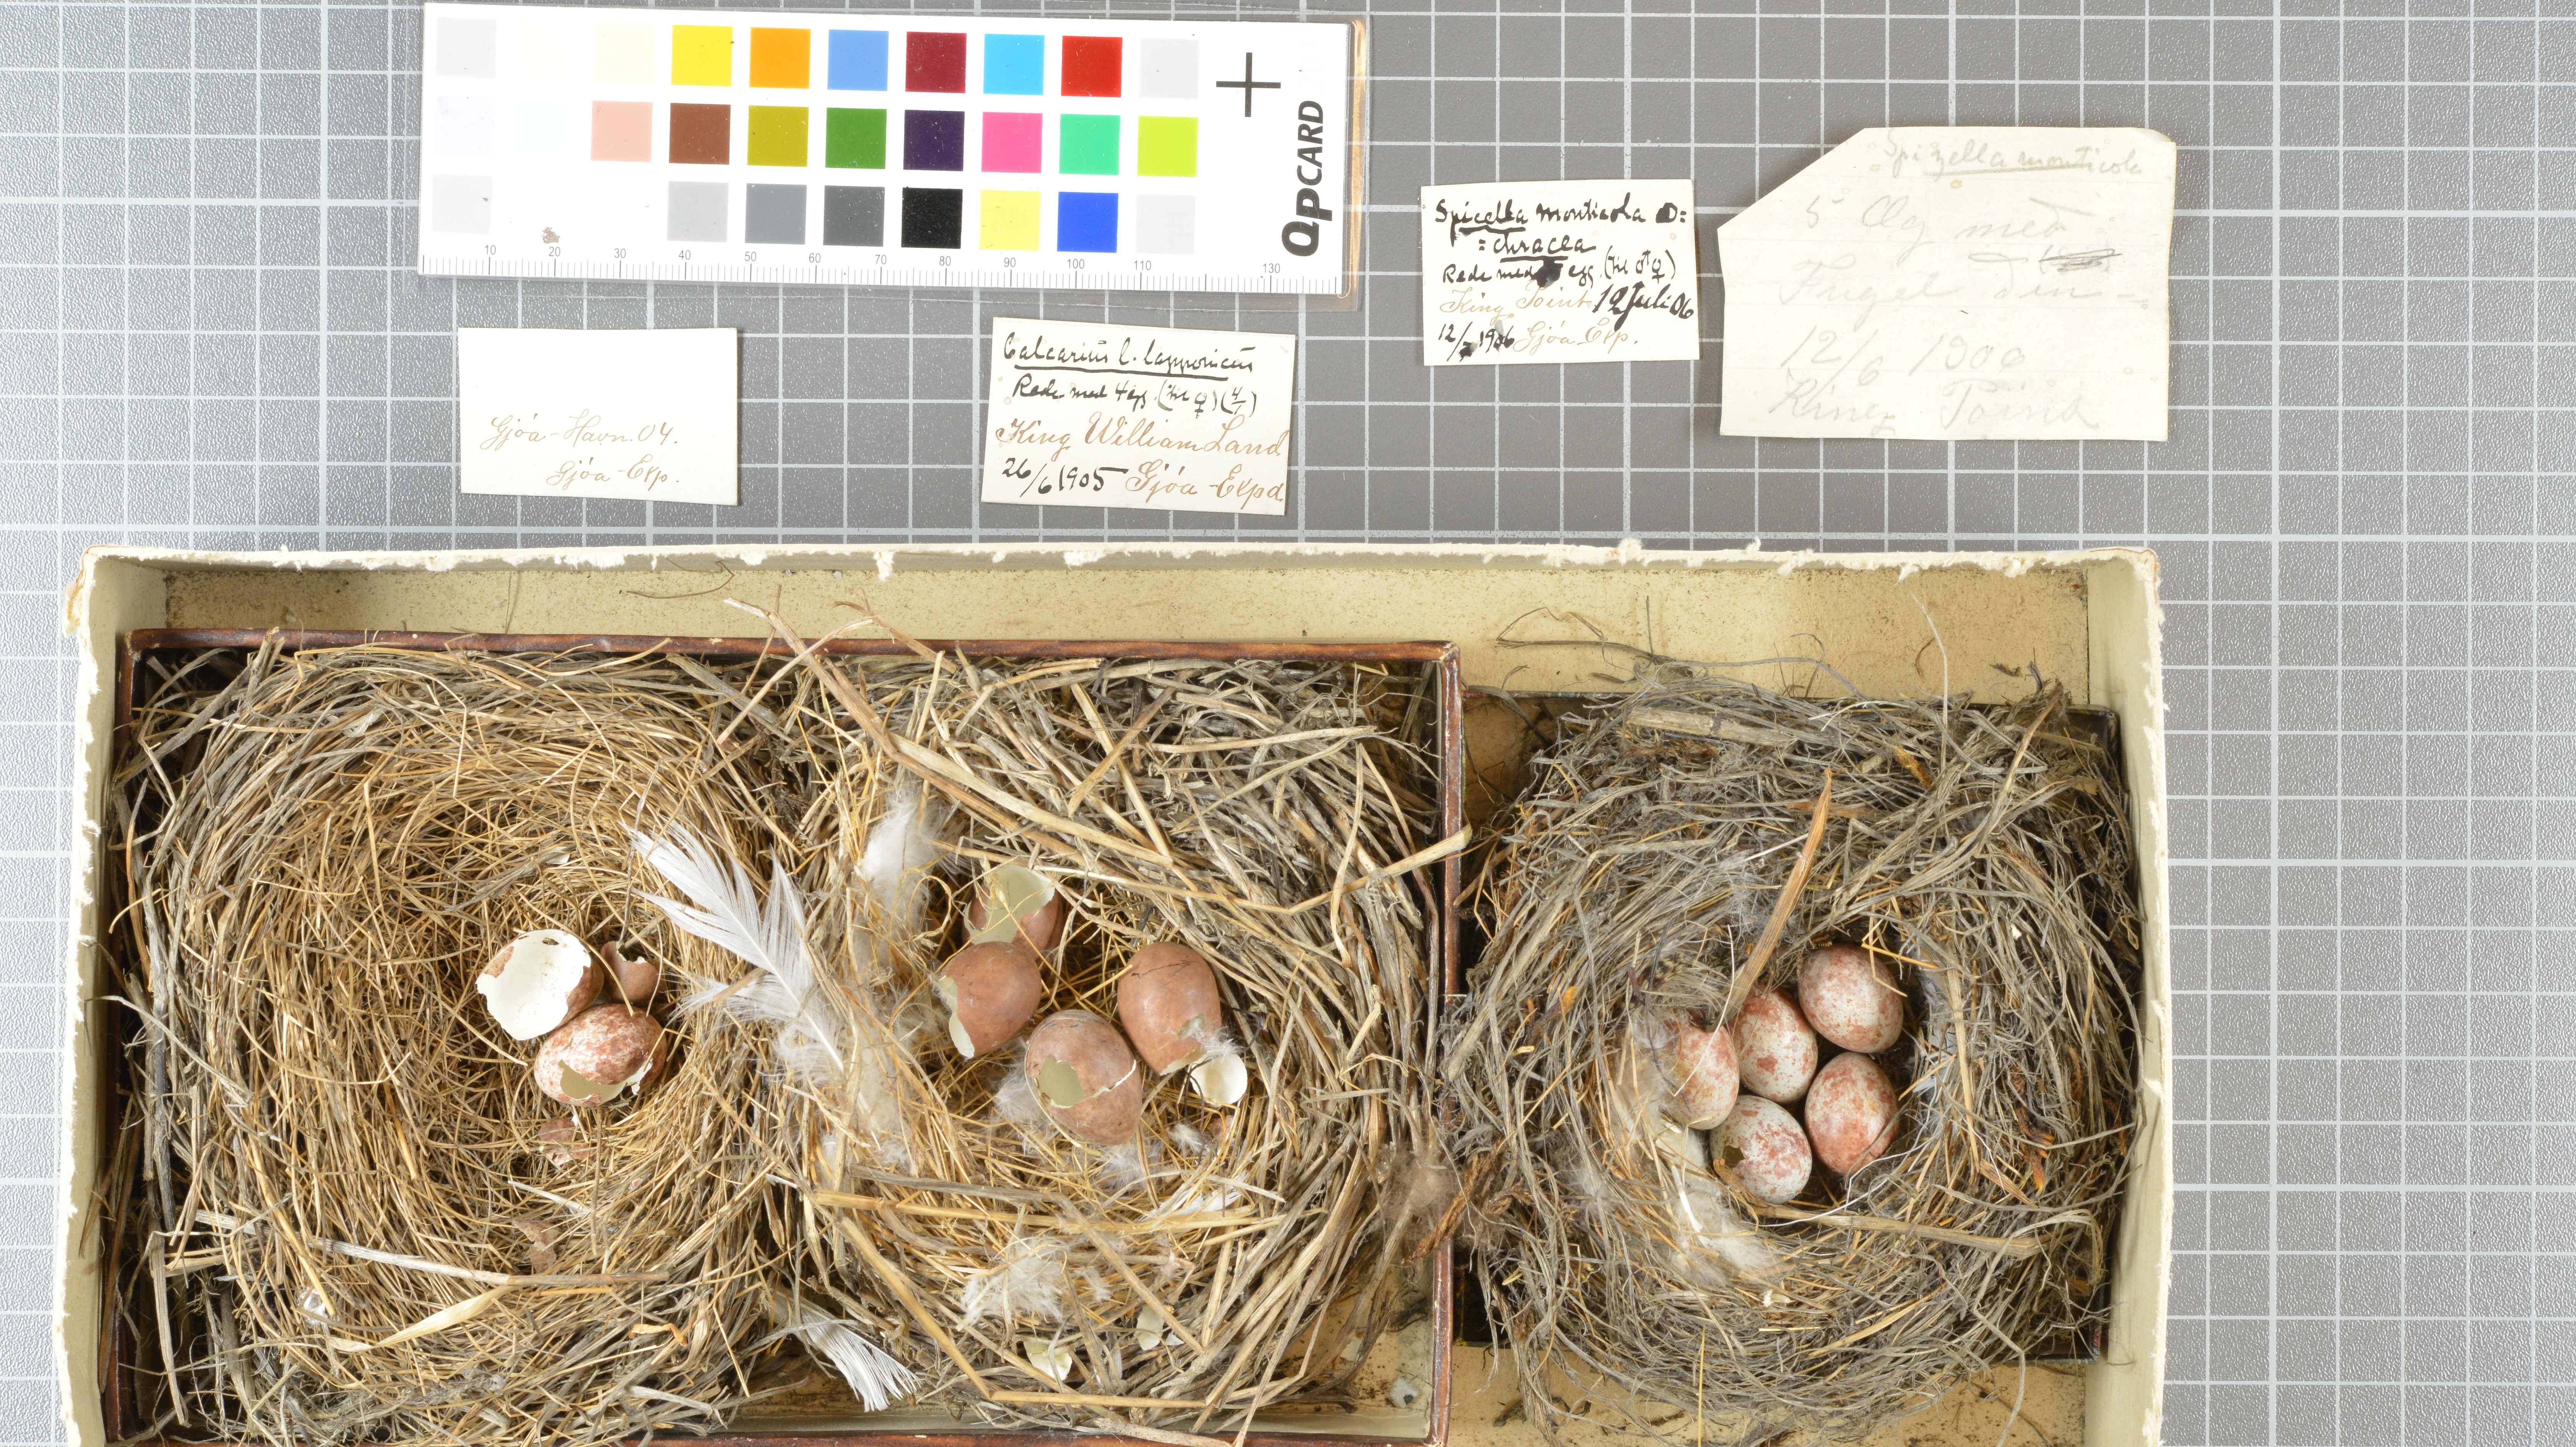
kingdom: Animalia
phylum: Chordata
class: Aves
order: Passeriformes
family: Passerellidae
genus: Spizelloides
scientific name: Spizelloides arborea
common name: American tree sparrow
